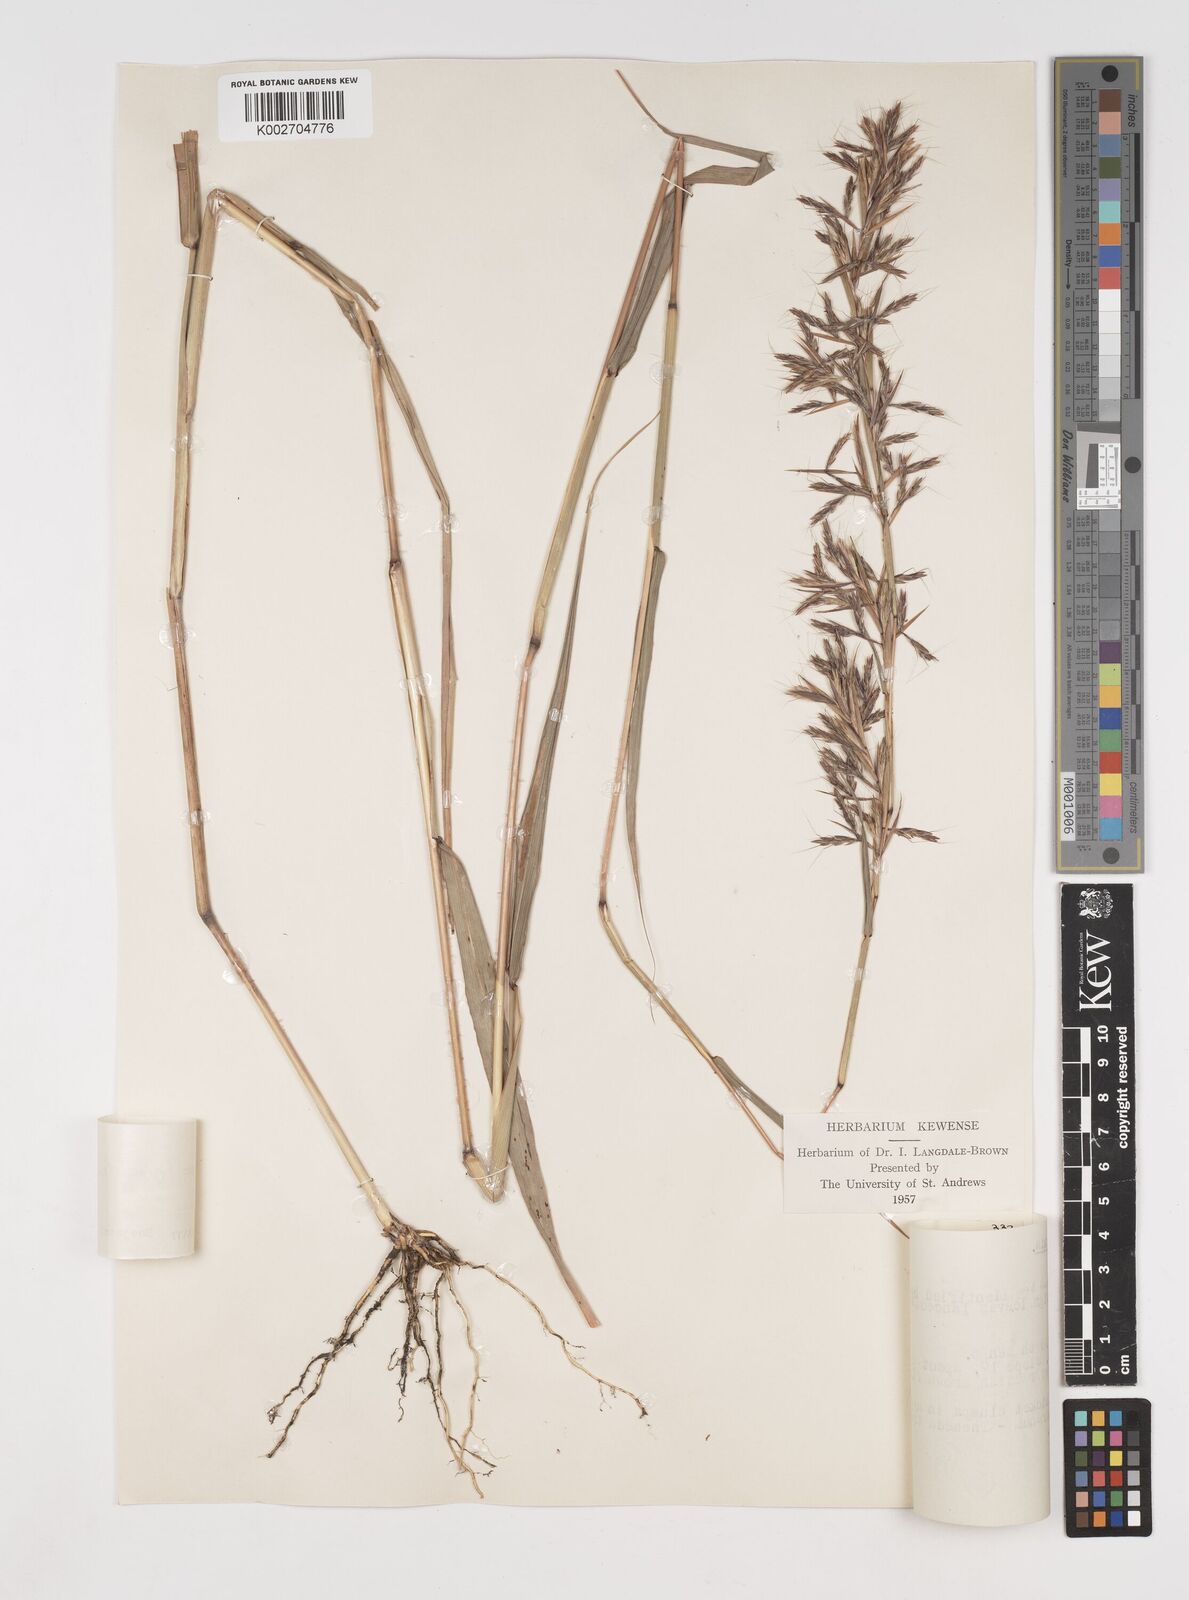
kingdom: Plantae
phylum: Tracheophyta
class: Liliopsida
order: Poales
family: Poaceae
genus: Cymbopogon
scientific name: Cymbopogon giganteus
